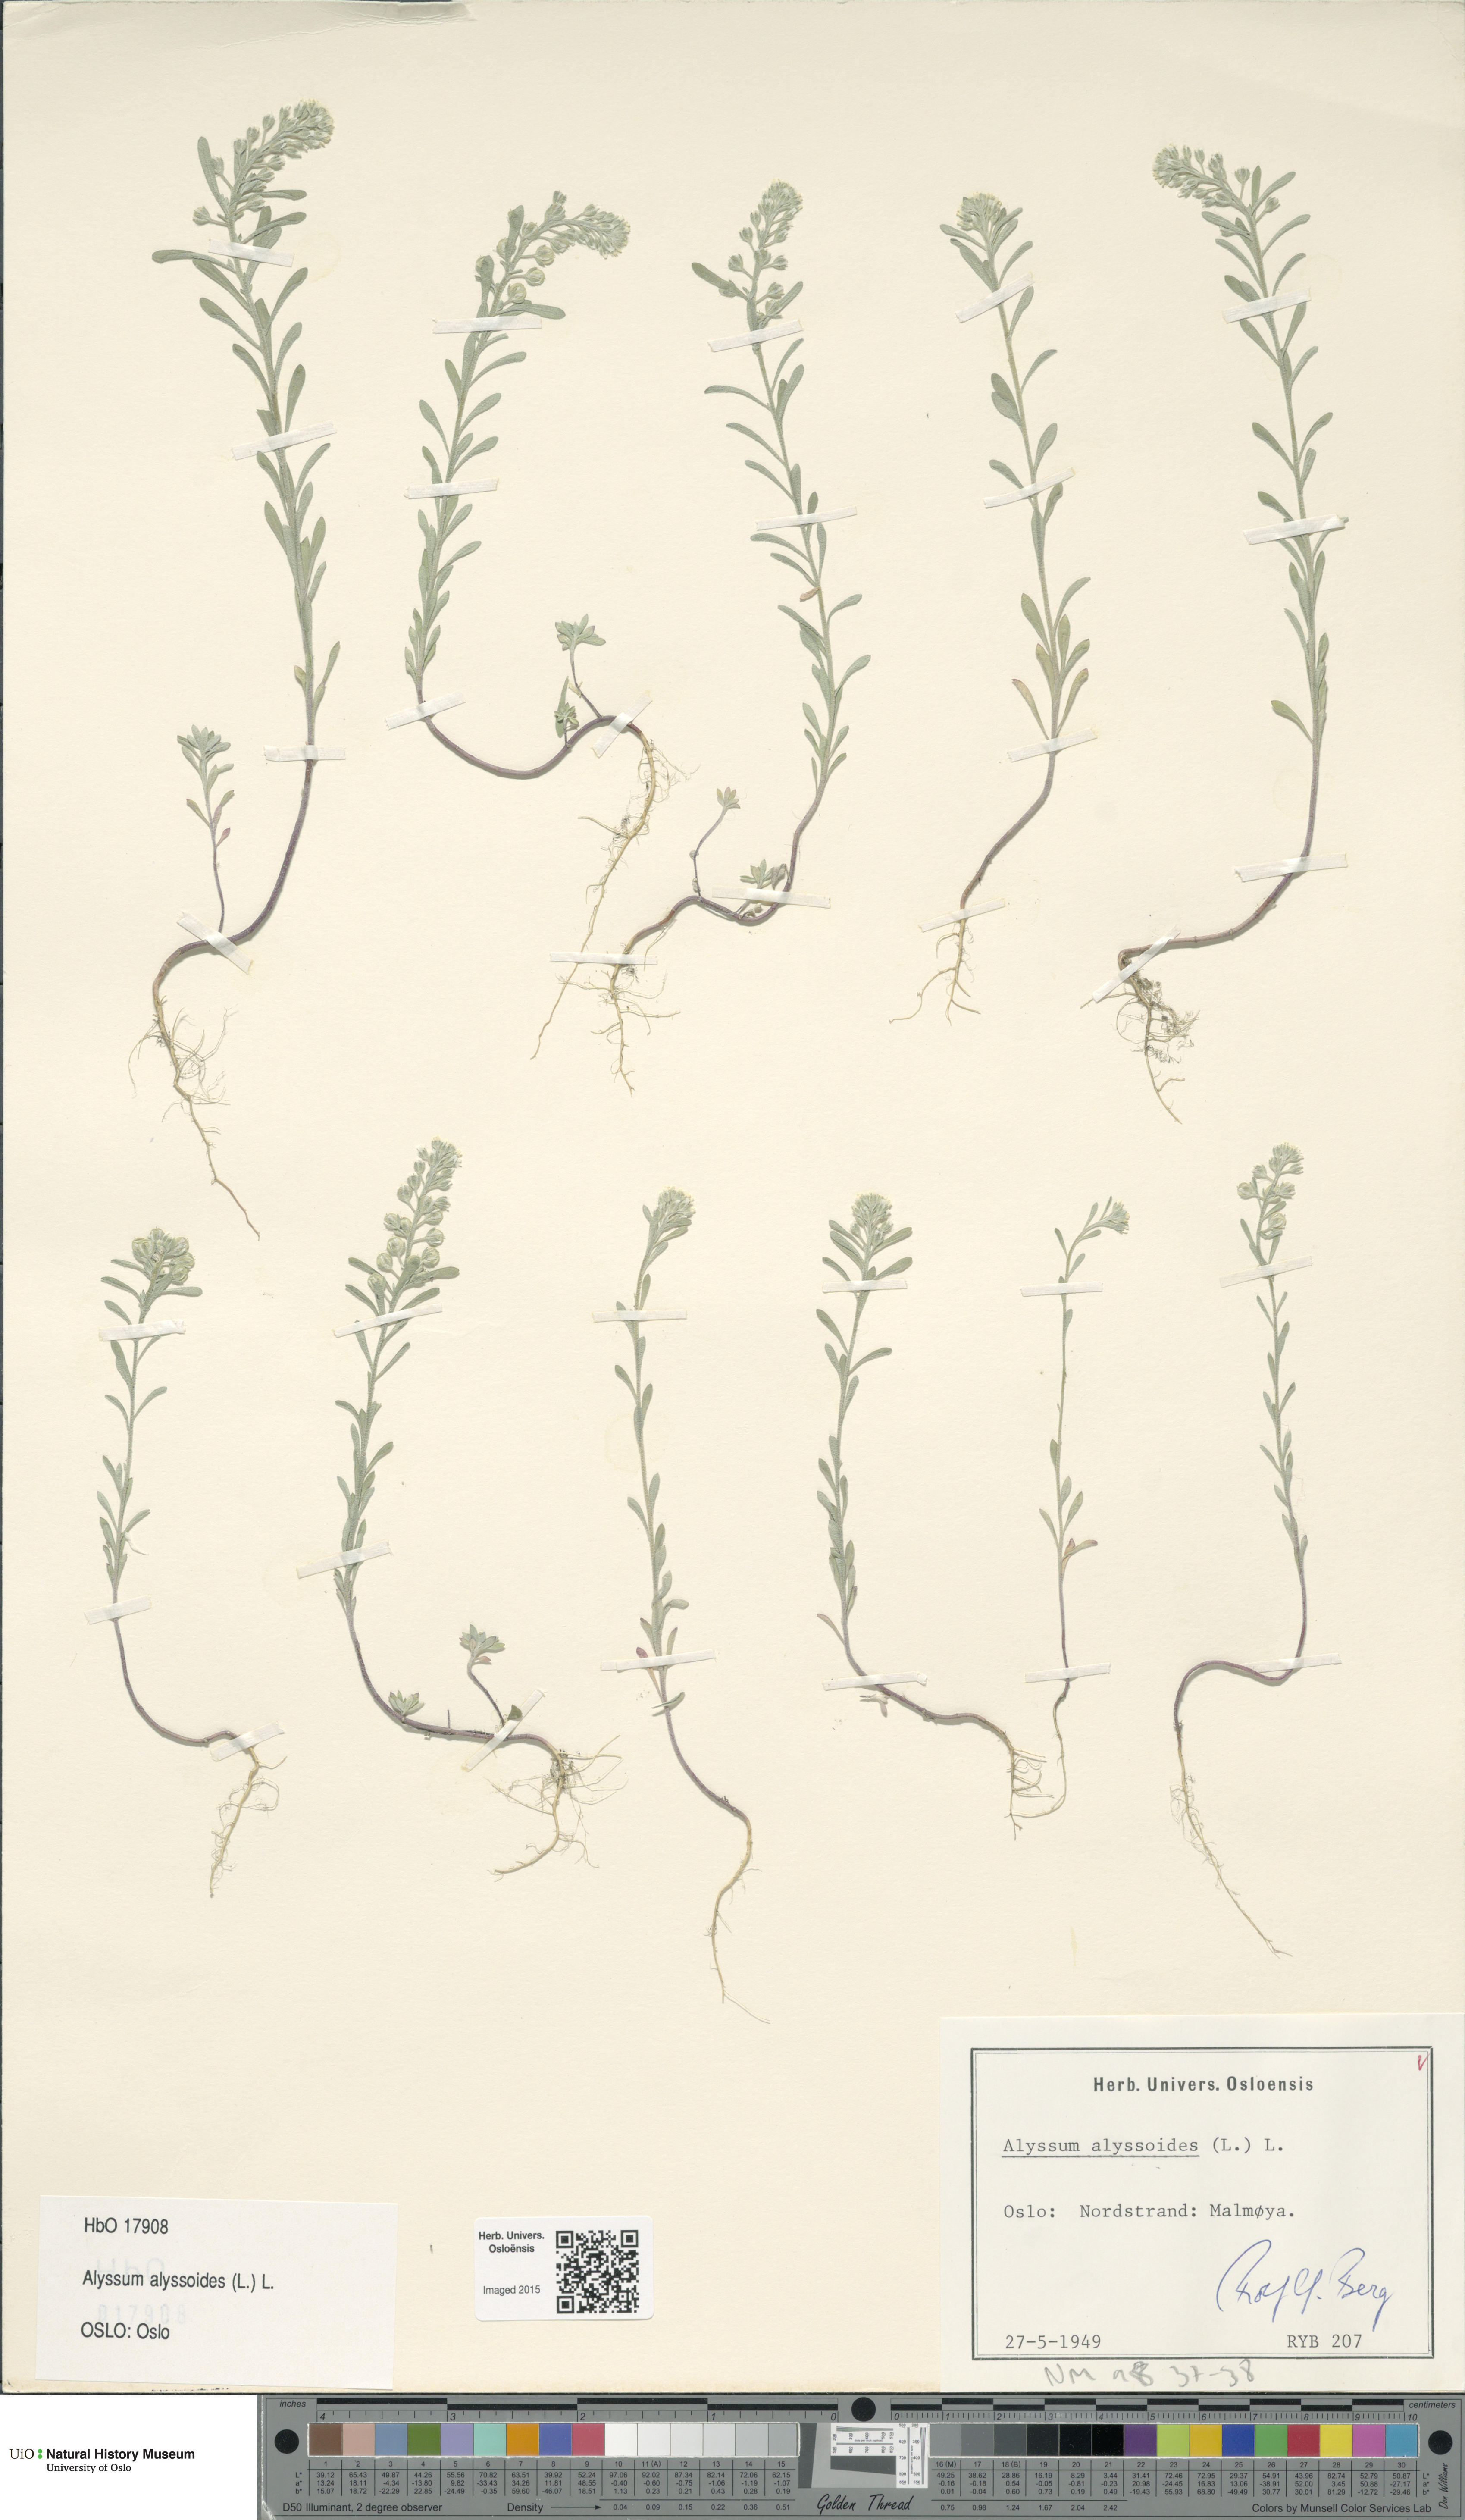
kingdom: Plantae
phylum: Tracheophyta
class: Magnoliopsida
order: Brassicales
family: Brassicaceae
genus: Alyssum
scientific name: Alyssum alyssoides
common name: Small alison
